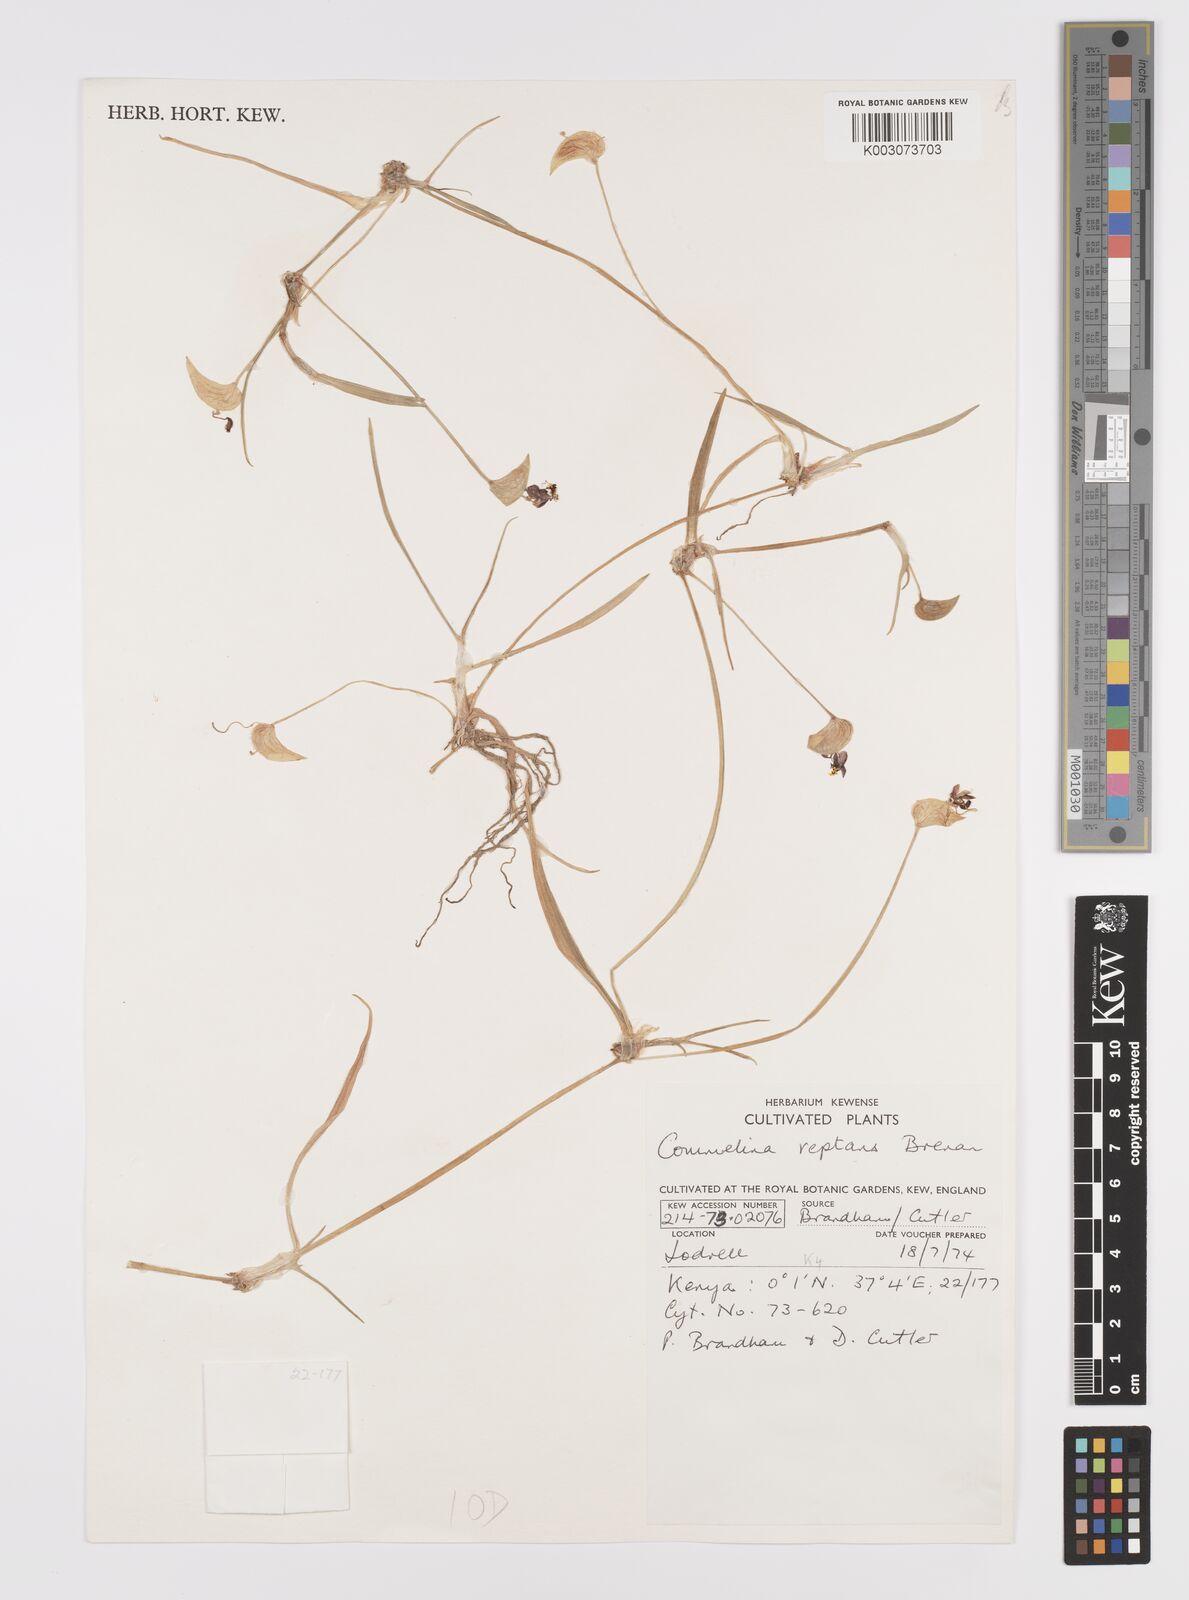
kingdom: Plantae
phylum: Tracheophyta
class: Liliopsida
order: Commelinales
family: Commelinaceae
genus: Commelina
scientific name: Commelina reptans
